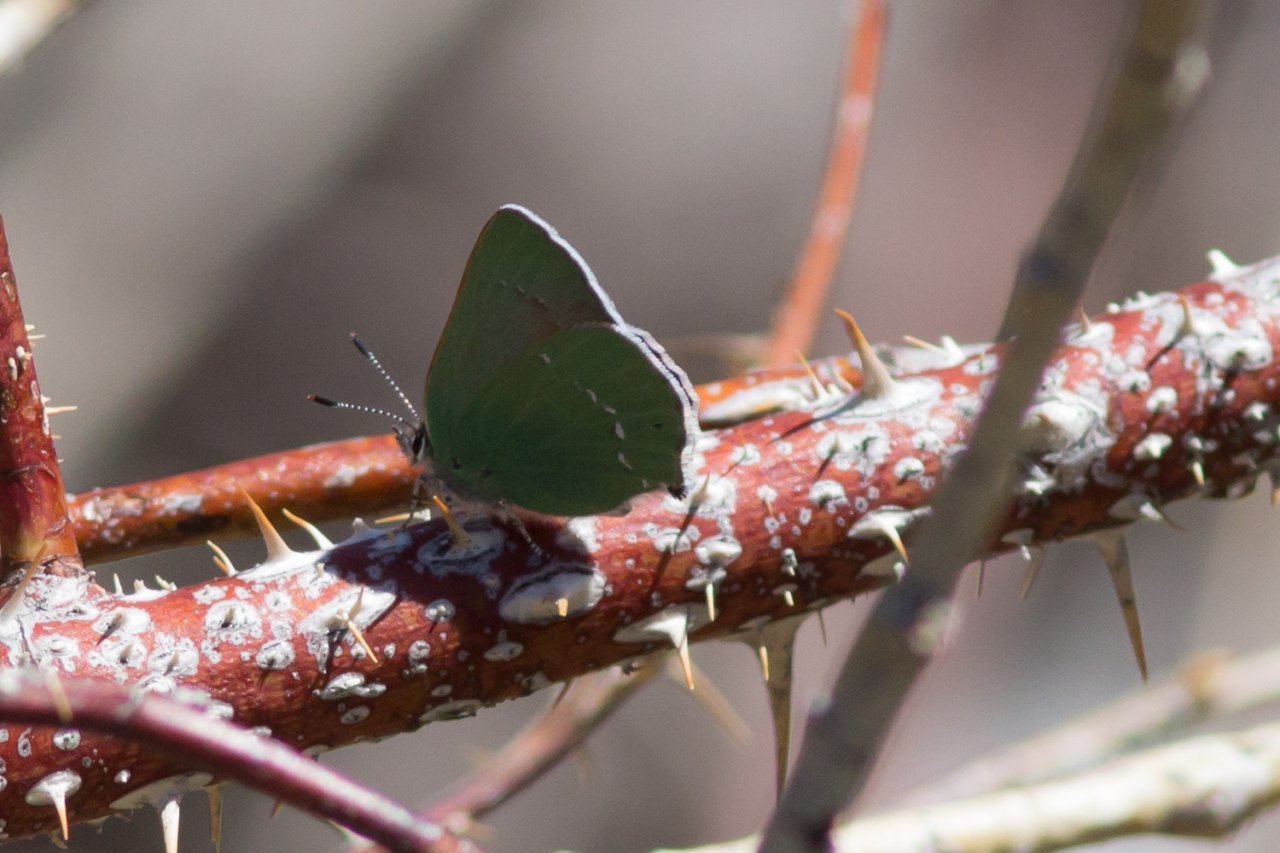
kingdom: Animalia
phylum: Arthropoda
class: Insecta
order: Lepidoptera
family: Lycaenidae
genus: Thecla
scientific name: Thecla sheridanii
